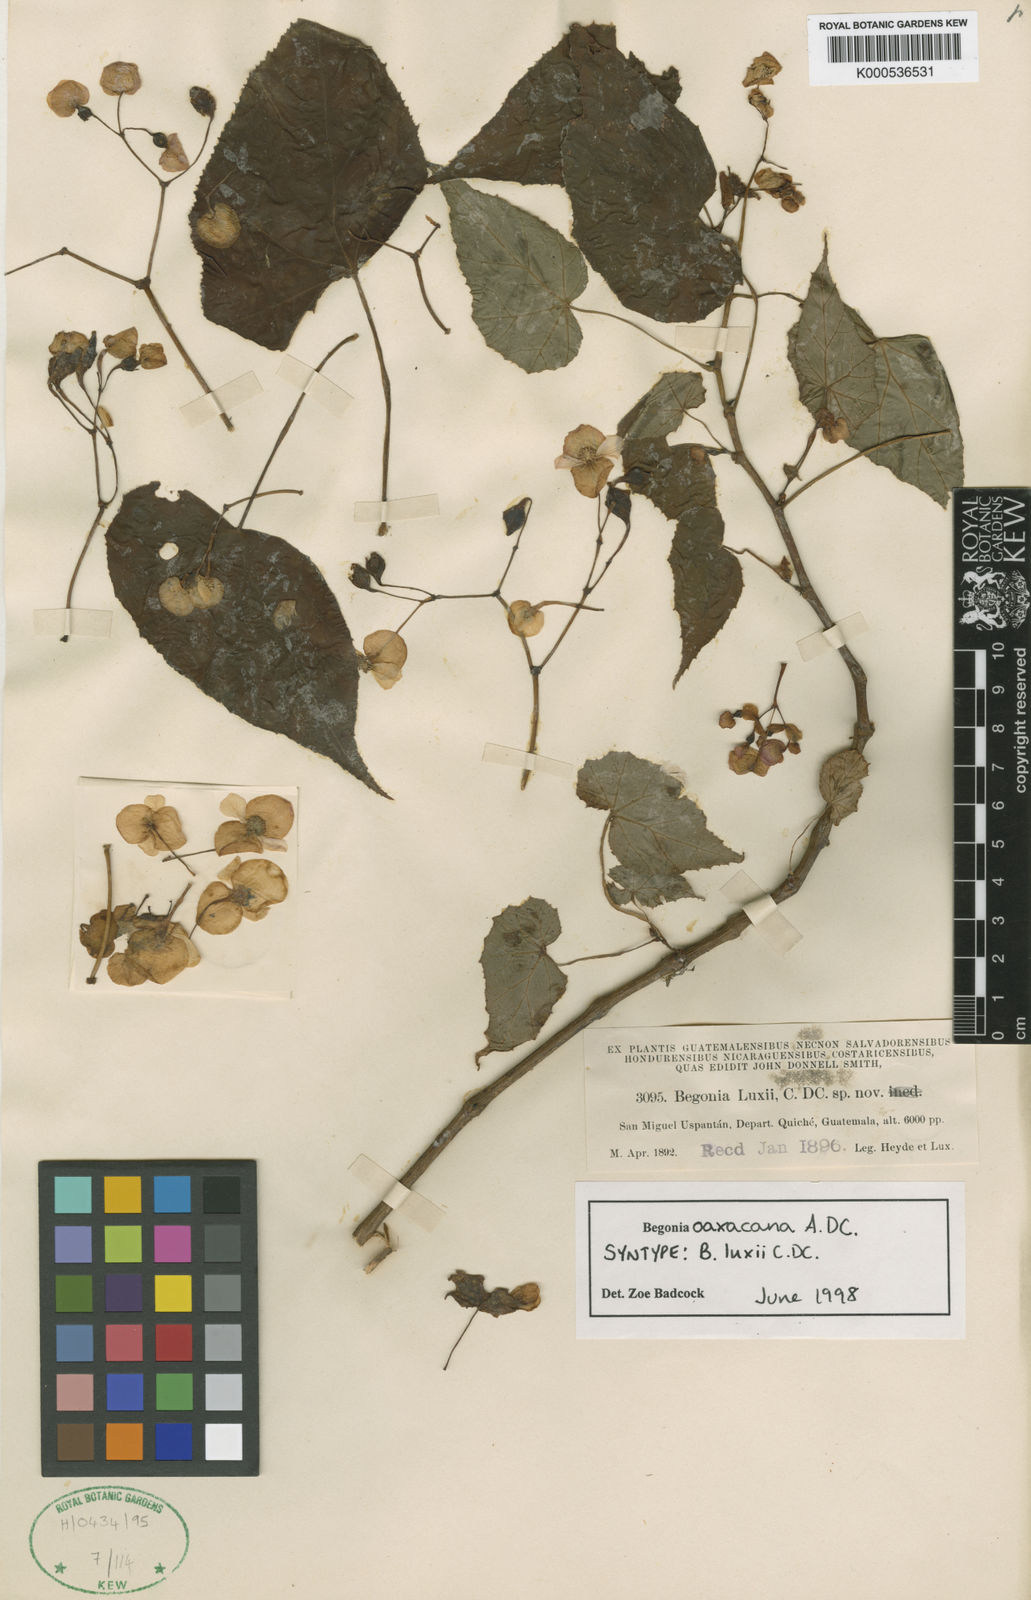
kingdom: Plantae
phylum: Tracheophyta
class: Magnoliopsida
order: Cucurbitales
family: Begoniaceae
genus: Begonia
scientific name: Begonia oaxacana
